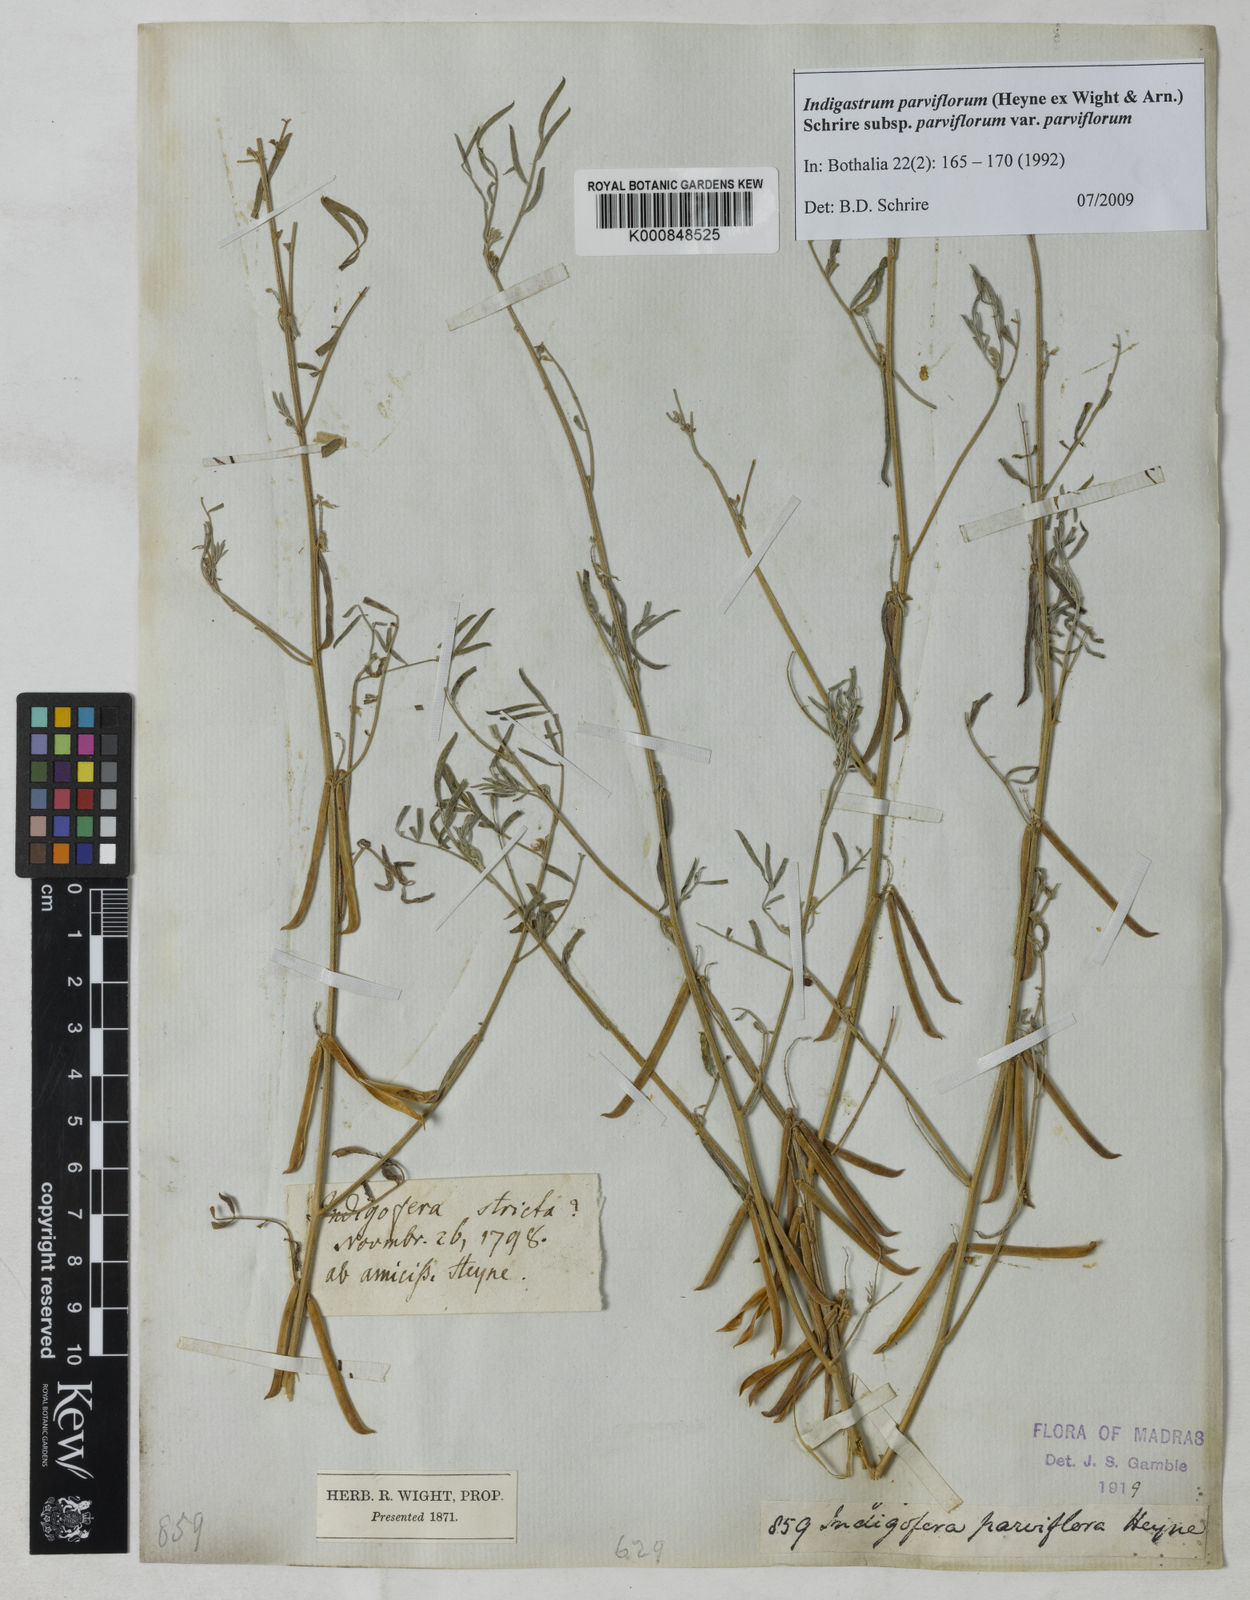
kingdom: Plantae
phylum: Tracheophyta
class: Magnoliopsida
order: Fabales
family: Fabaceae
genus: Indigastrum
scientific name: Indigastrum parviflorum
